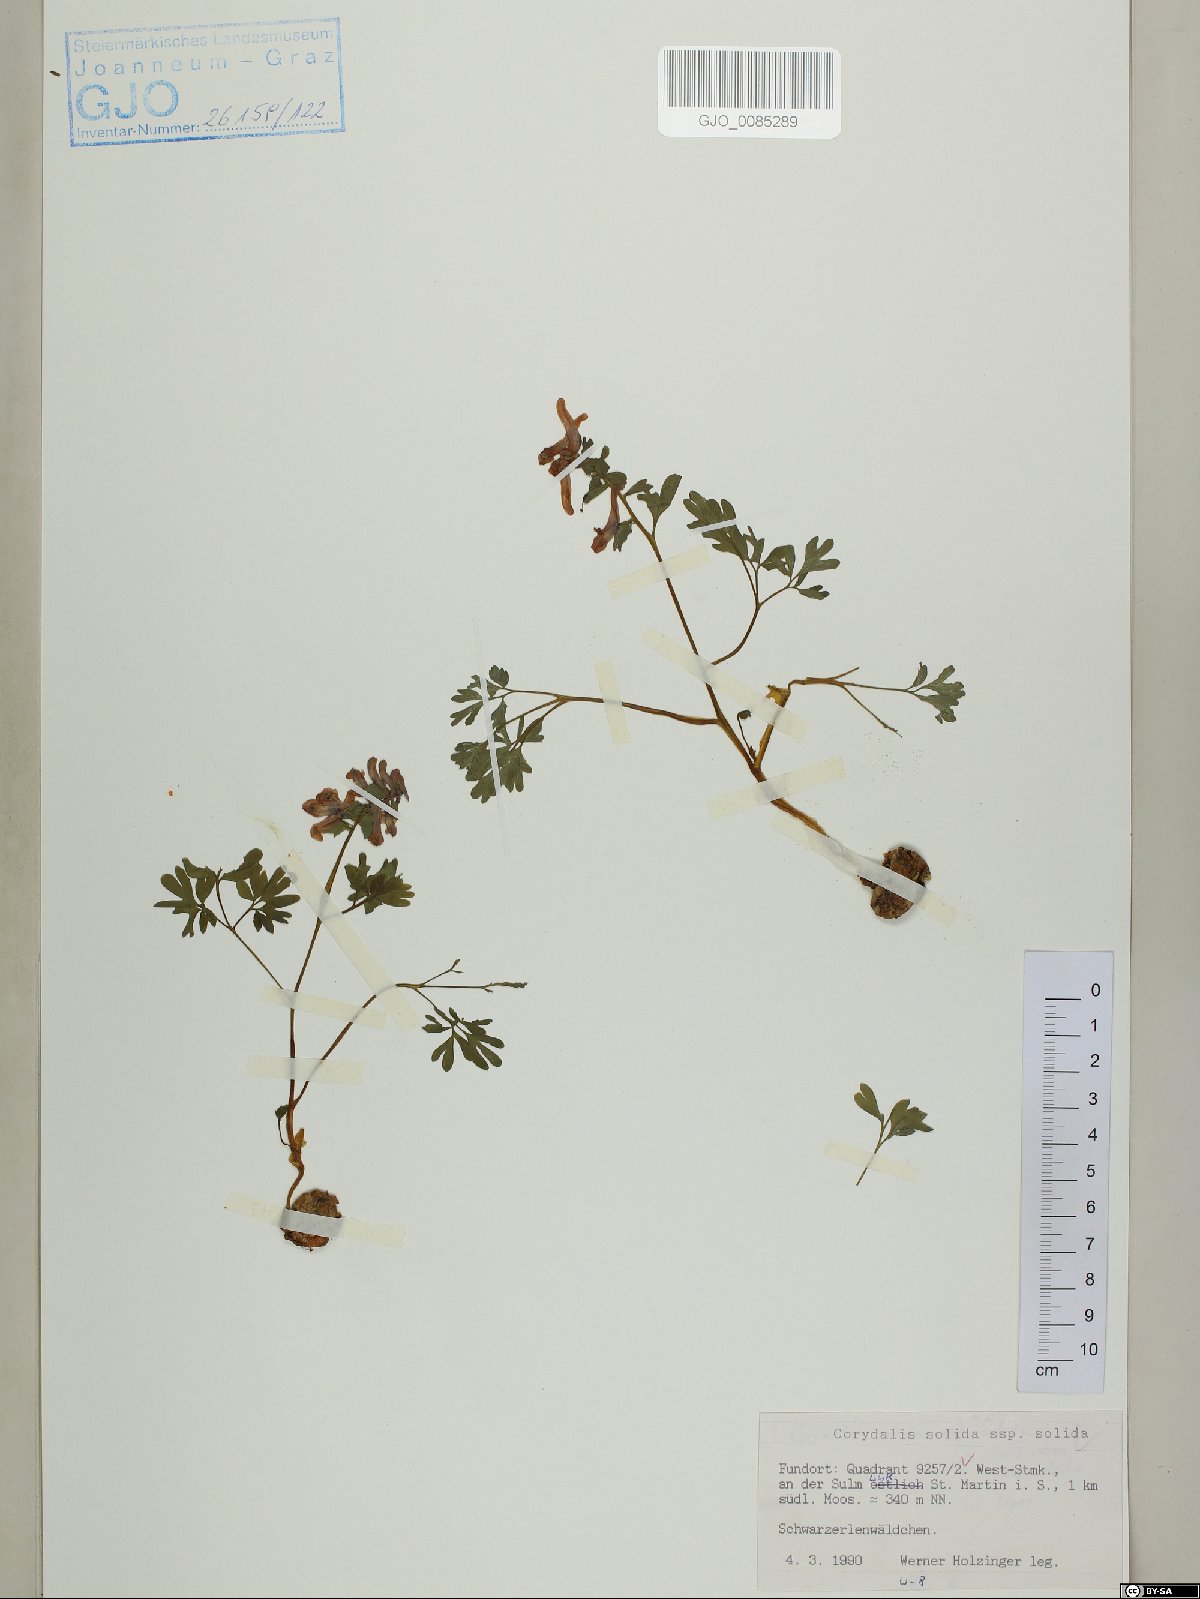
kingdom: Plantae
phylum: Tracheophyta
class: Magnoliopsida
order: Ranunculales
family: Papaveraceae
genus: Corydalis
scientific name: Corydalis solida
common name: Bird-in-a-bush
